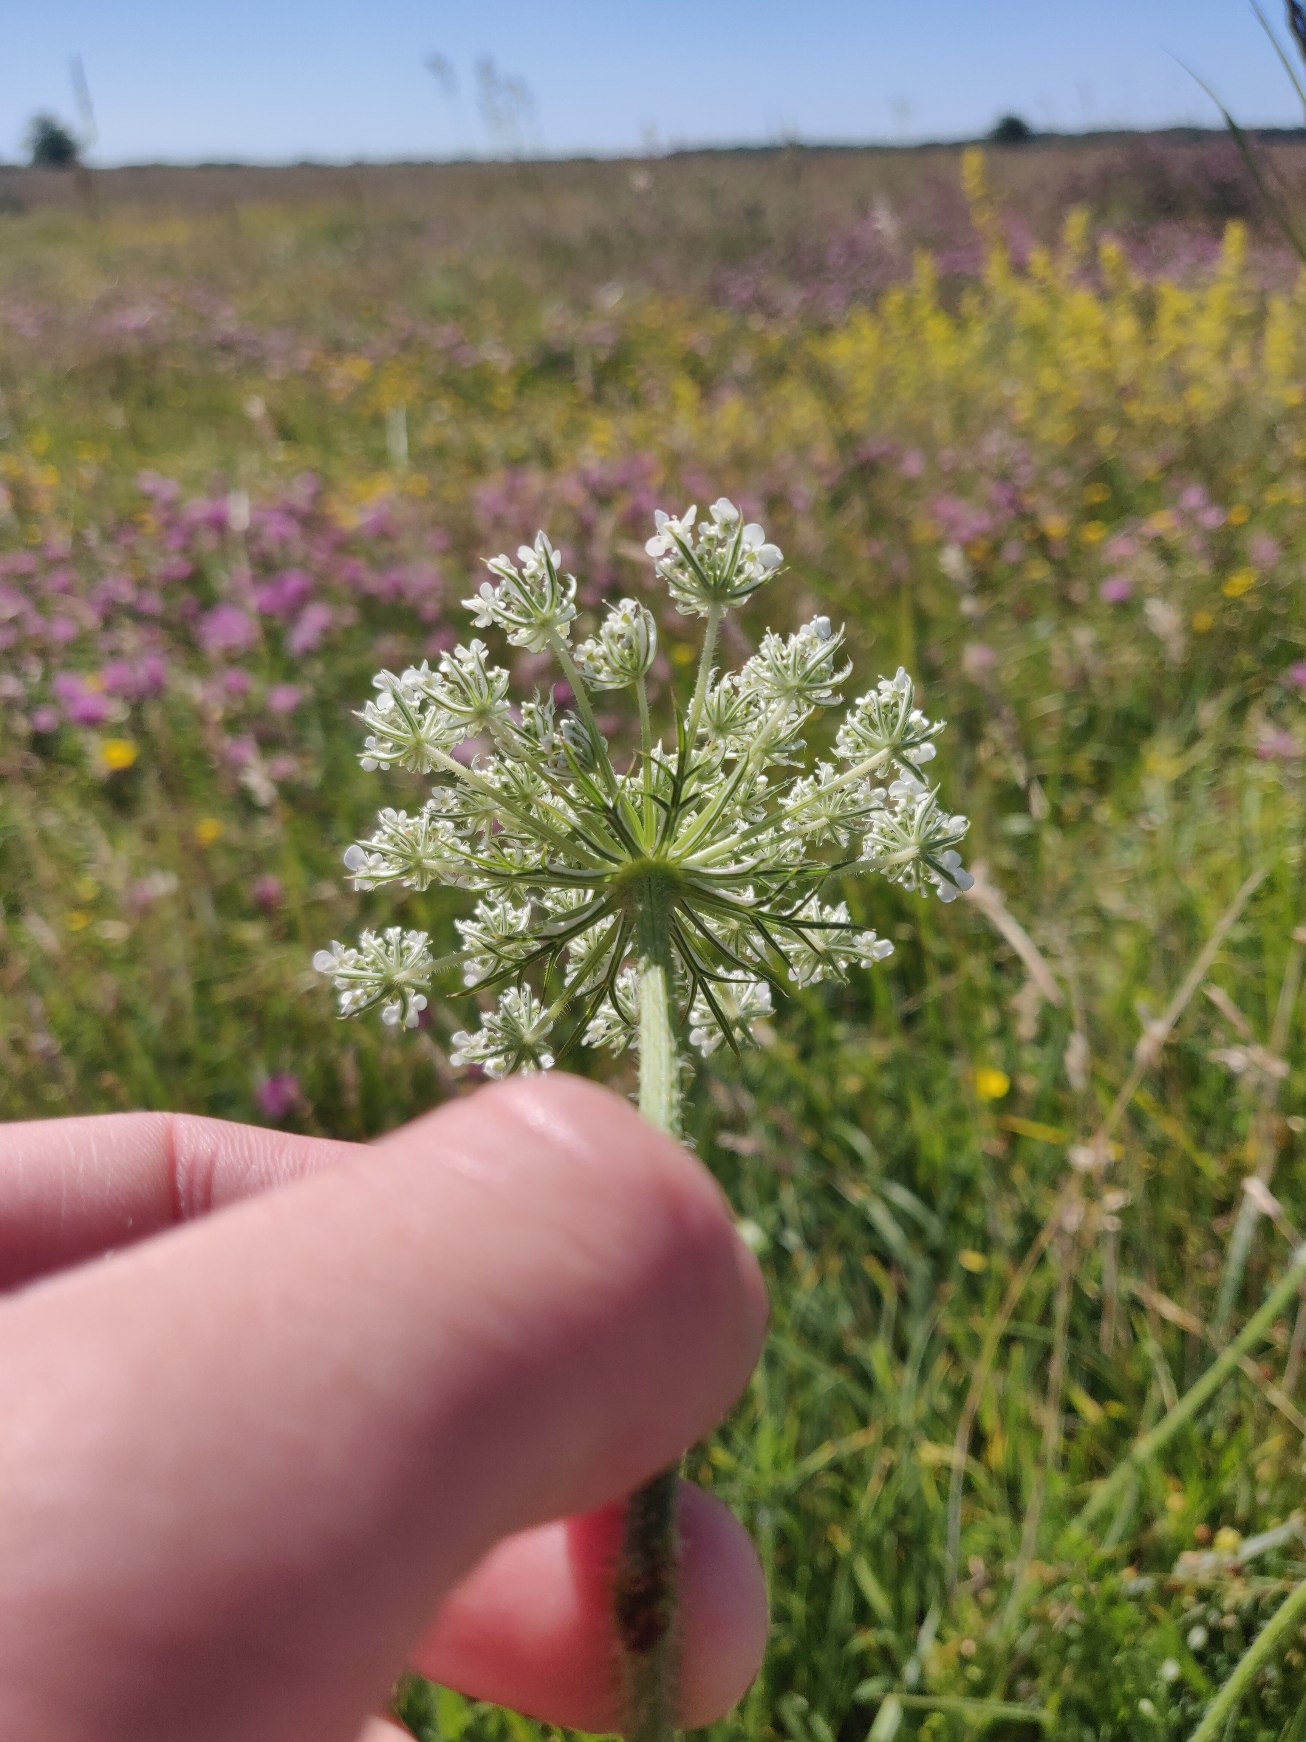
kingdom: Plantae
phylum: Tracheophyta
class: Magnoliopsida
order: Apiales
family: Apiaceae
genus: Daucus
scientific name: Daucus carota
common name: Vild gulerod
